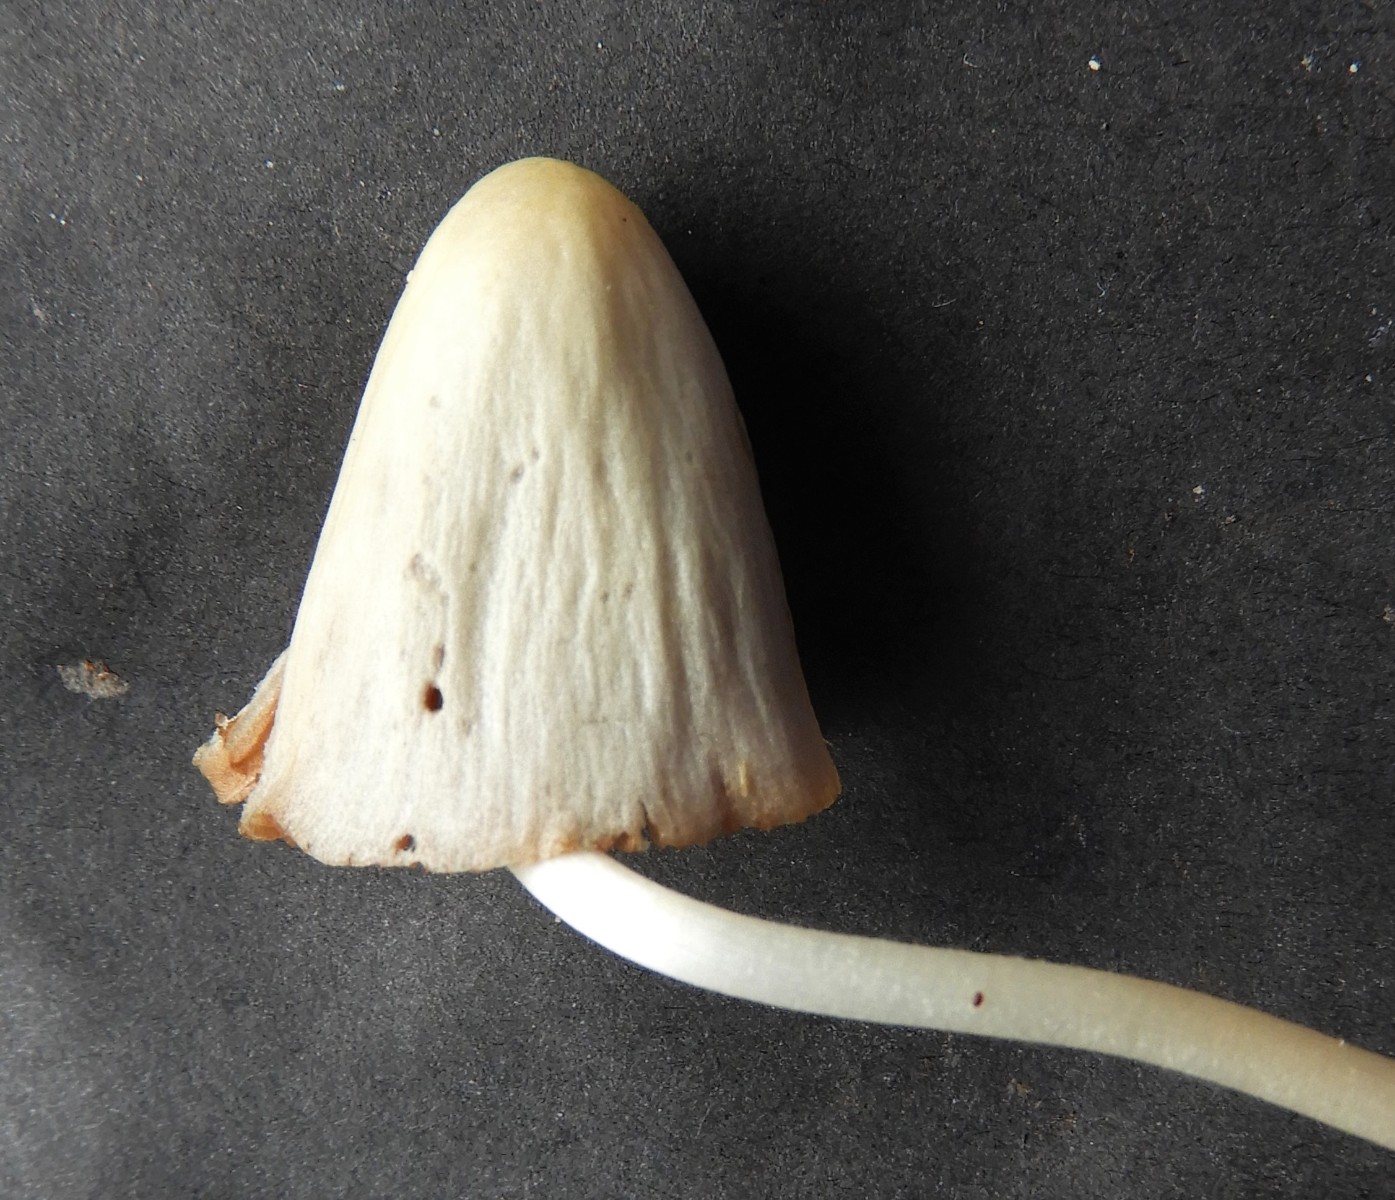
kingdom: Fungi
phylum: Basidiomycota
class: Agaricomycetes
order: Agaricales
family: Bolbitiaceae
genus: Conocybe
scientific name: Conocybe apala
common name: mælkehvid keglehat
